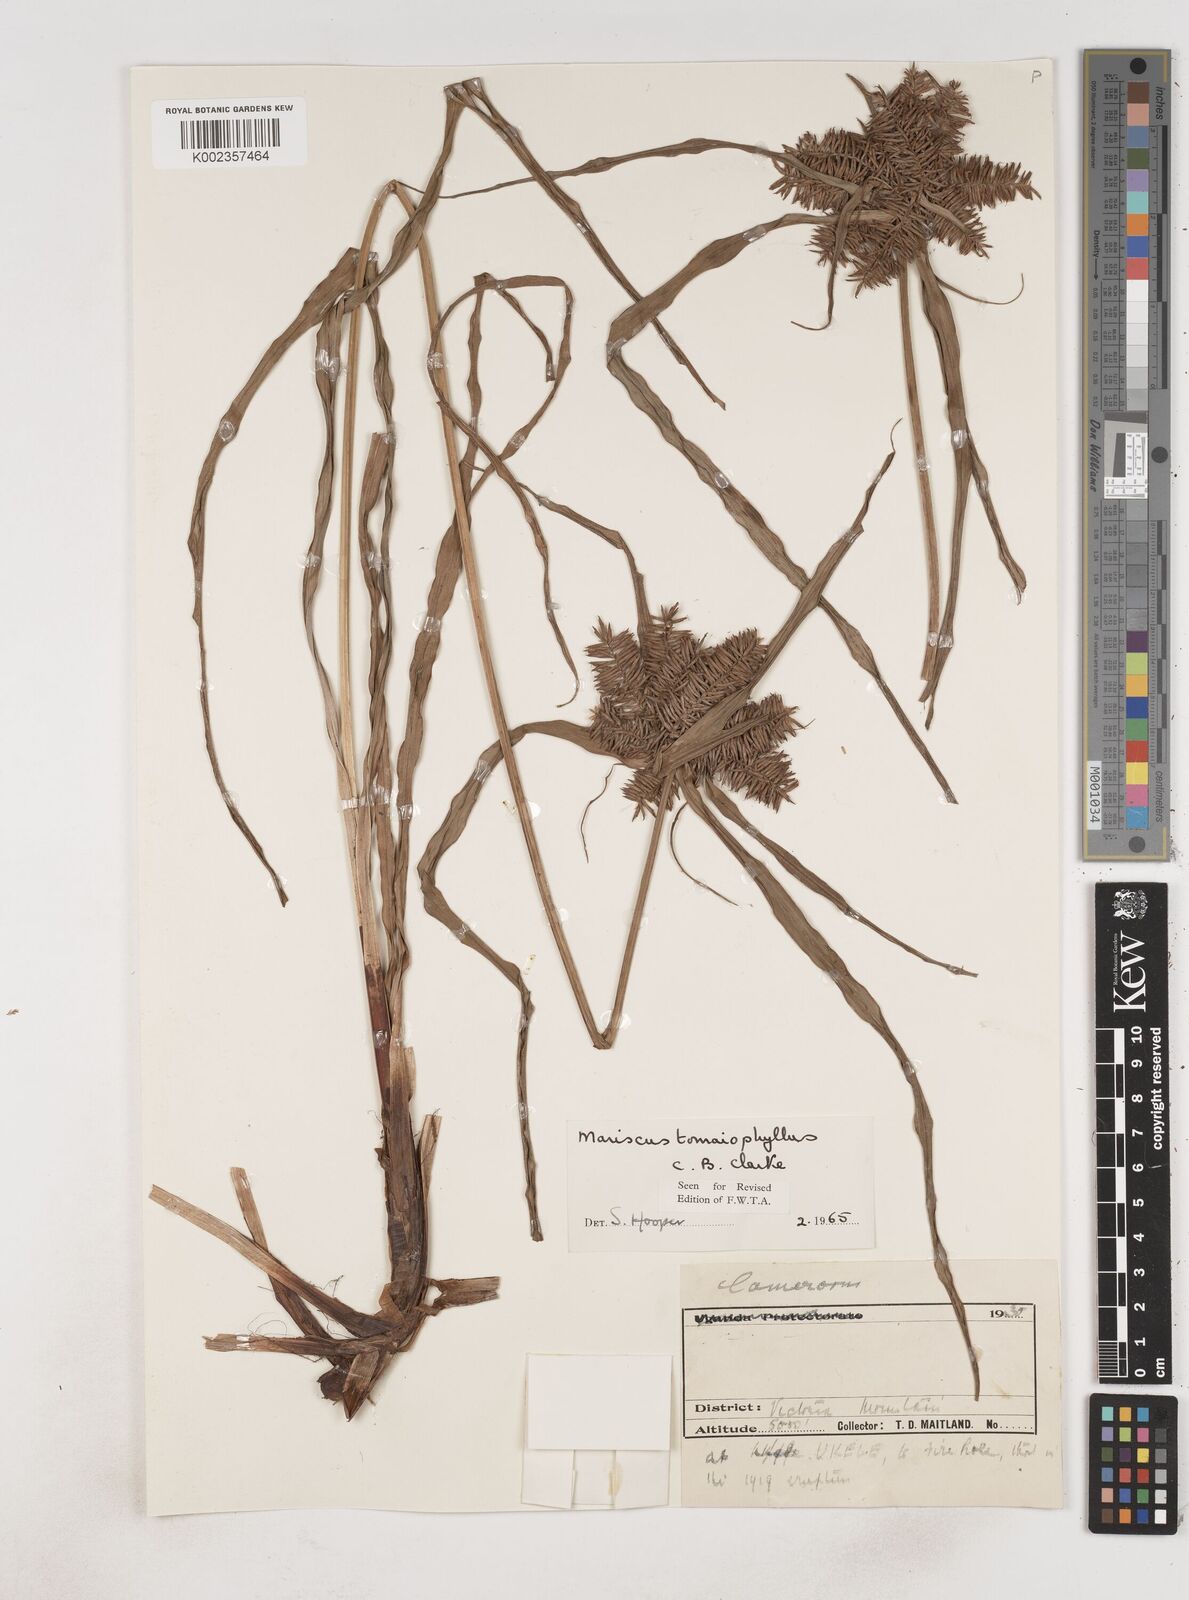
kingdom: Plantae
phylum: Tracheophyta
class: Liliopsida
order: Poales
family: Cyperaceae
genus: Cyperus
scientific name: Cyperus tomaiophyllus
